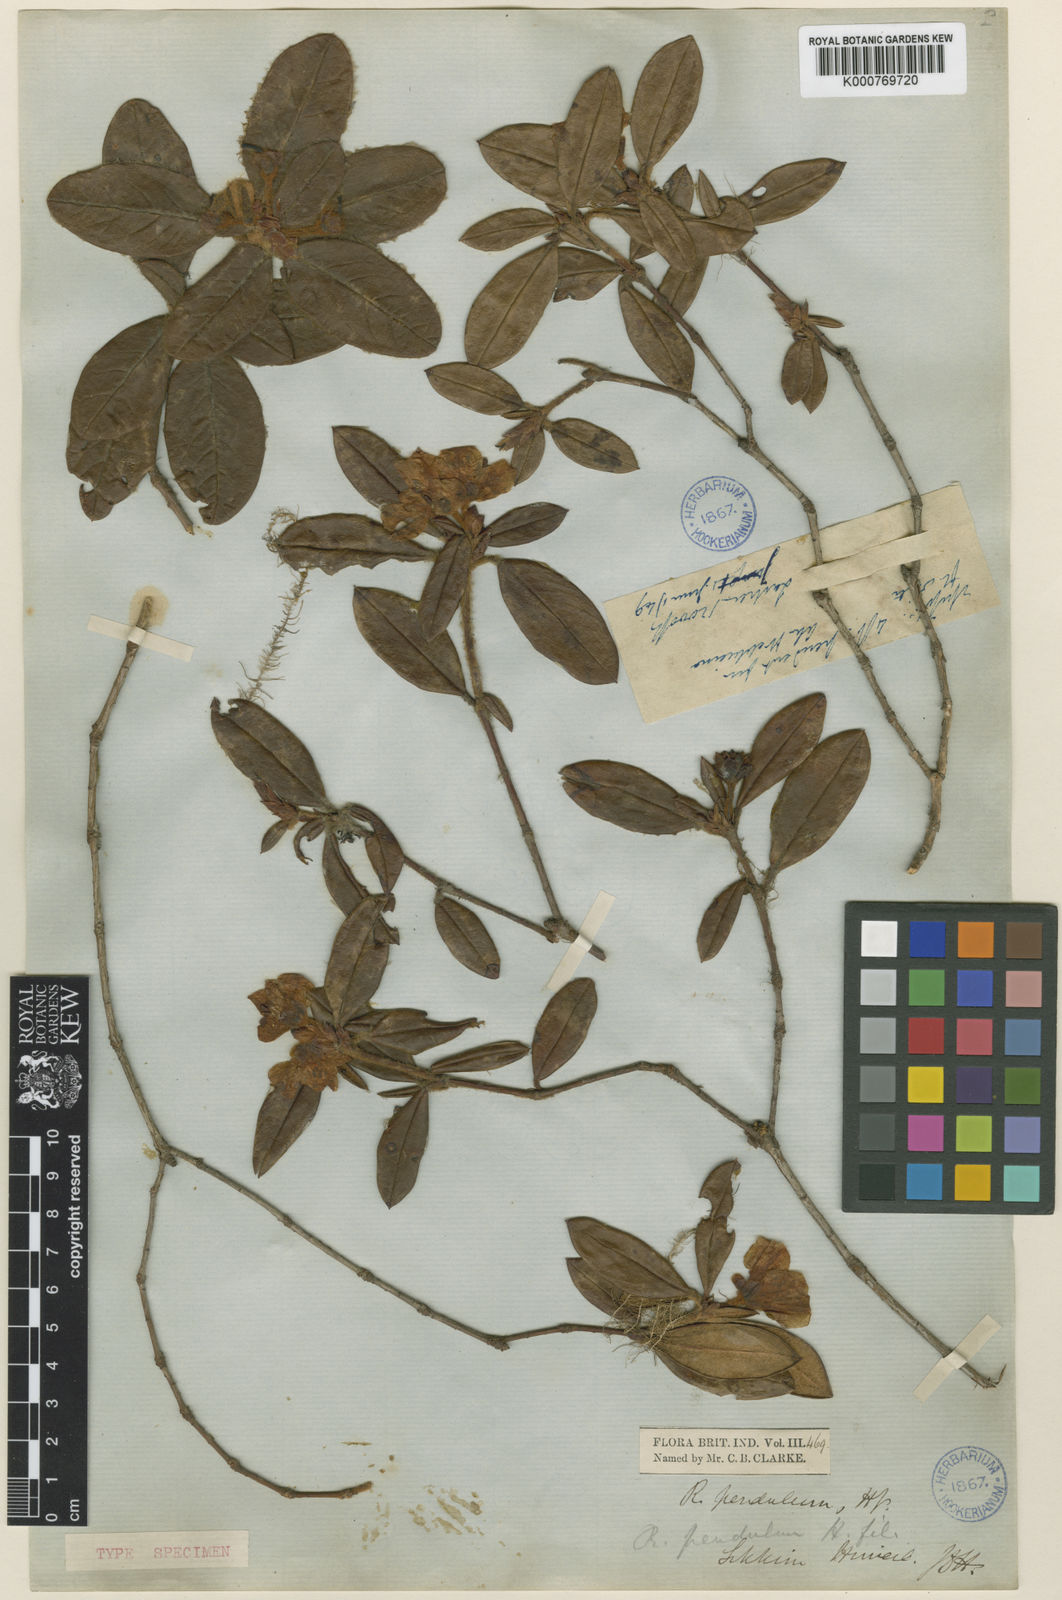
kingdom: Plantae
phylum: Tracheophyta
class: Magnoliopsida
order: Ericales
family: Ericaceae
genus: Rhododendron
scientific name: Rhododendron pendulum
